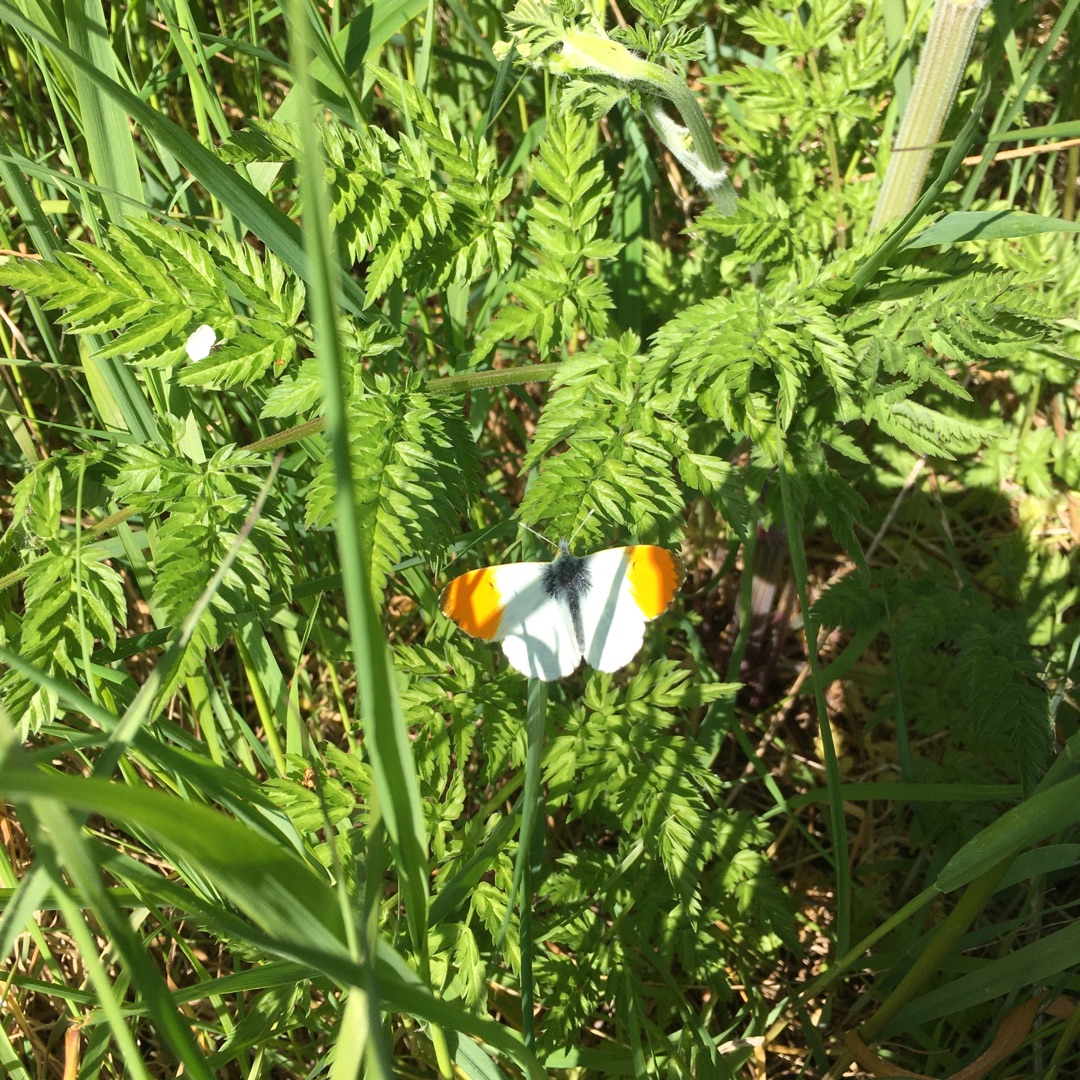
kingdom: Animalia
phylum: Arthropoda
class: Insecta
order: Lepidoptera
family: Pieridae
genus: Anthocharis
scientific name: Anthocharis cardamines
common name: Aurora
